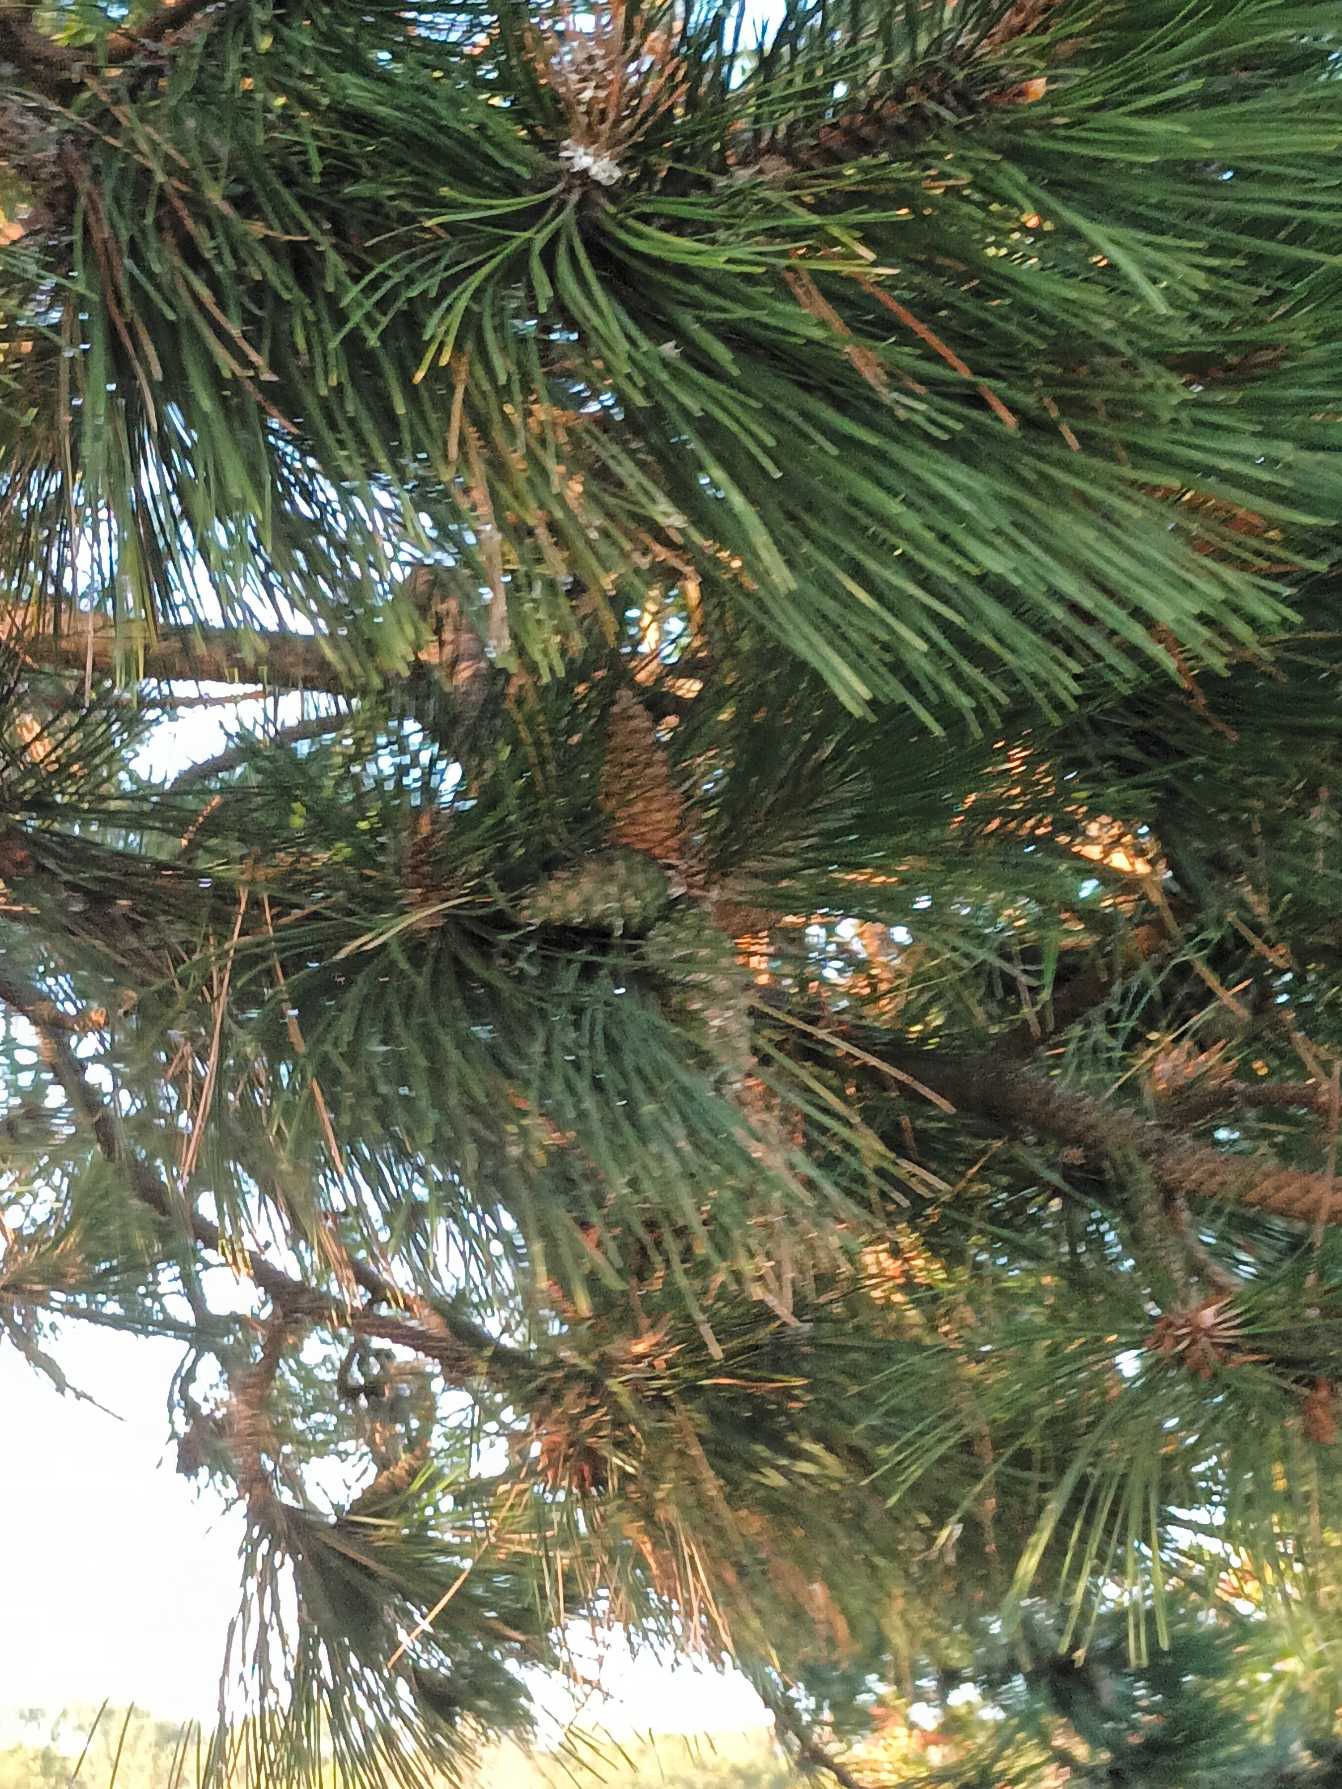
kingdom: Plantae
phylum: Tracheophyta
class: Pinopsida
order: Pinales
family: Pinaceae
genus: Pinus
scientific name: Pinus nigra
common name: Østrigsk fyr
